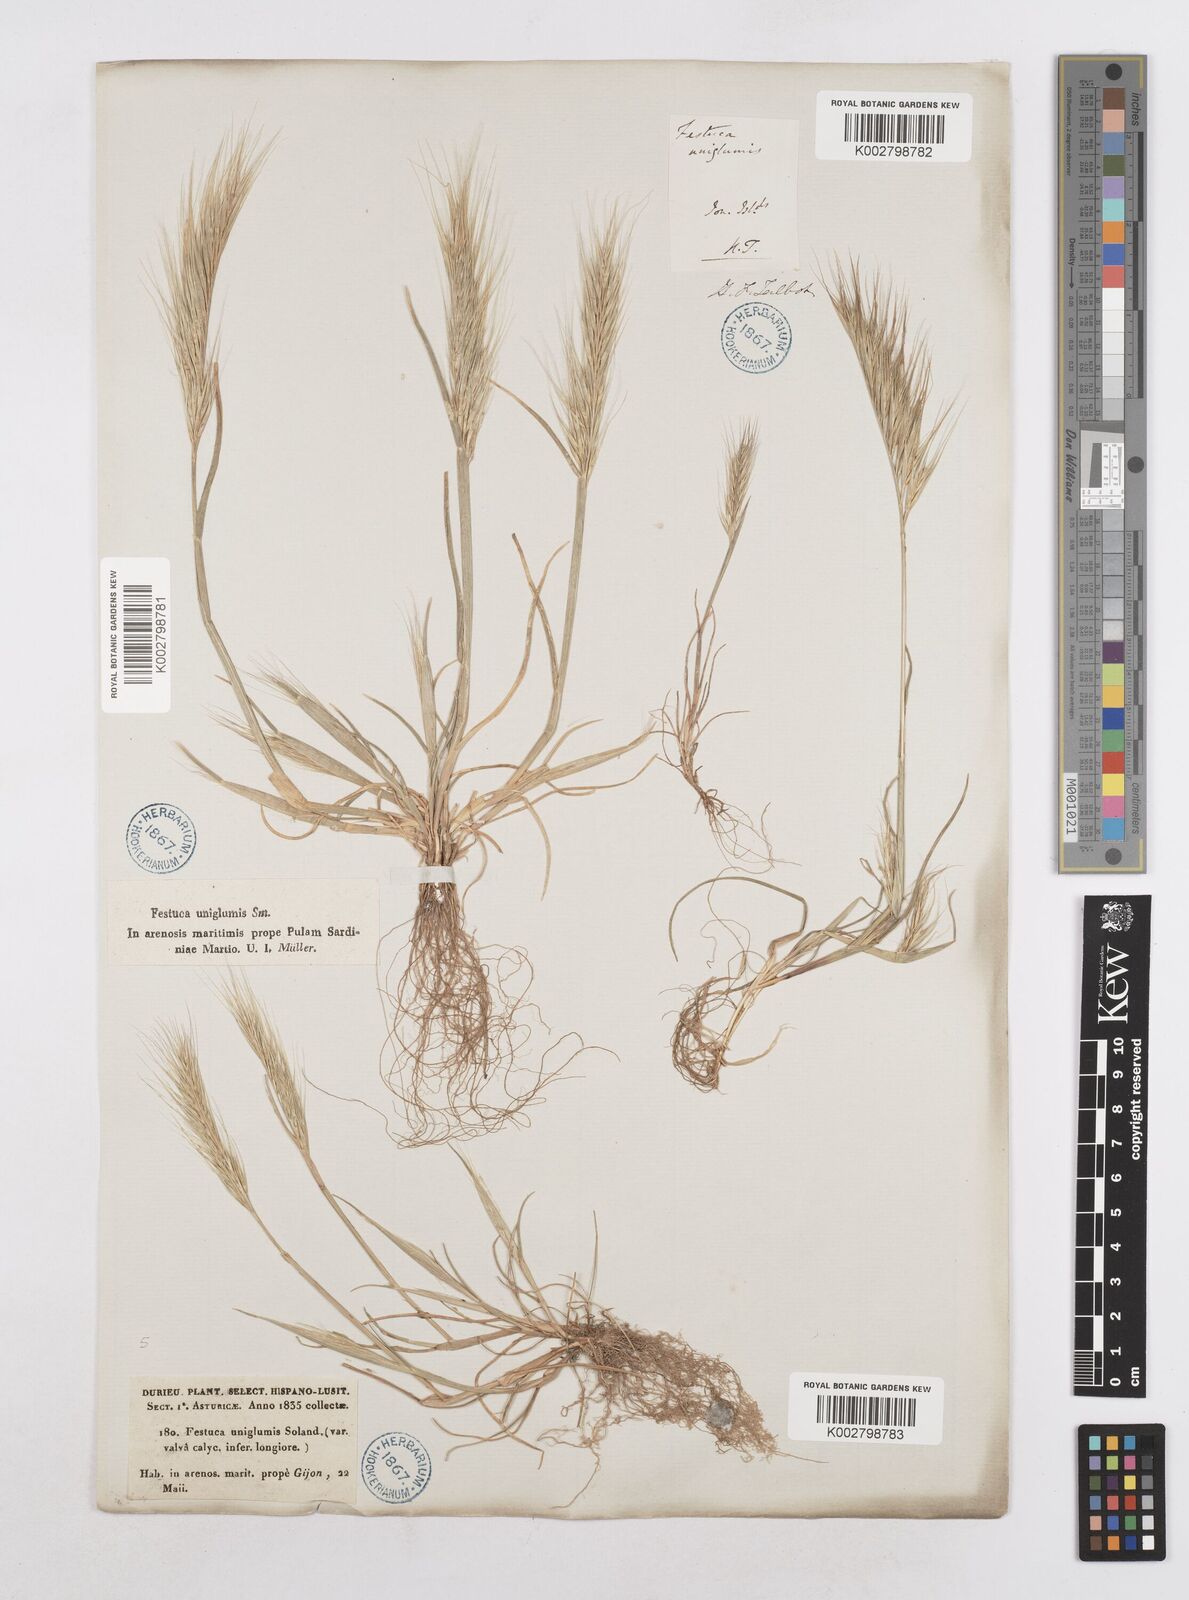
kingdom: Plantae
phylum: Tracheophyta
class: Liliopsida
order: Poales
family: Poaceae
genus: Festuca
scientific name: Festuca fasciculata
